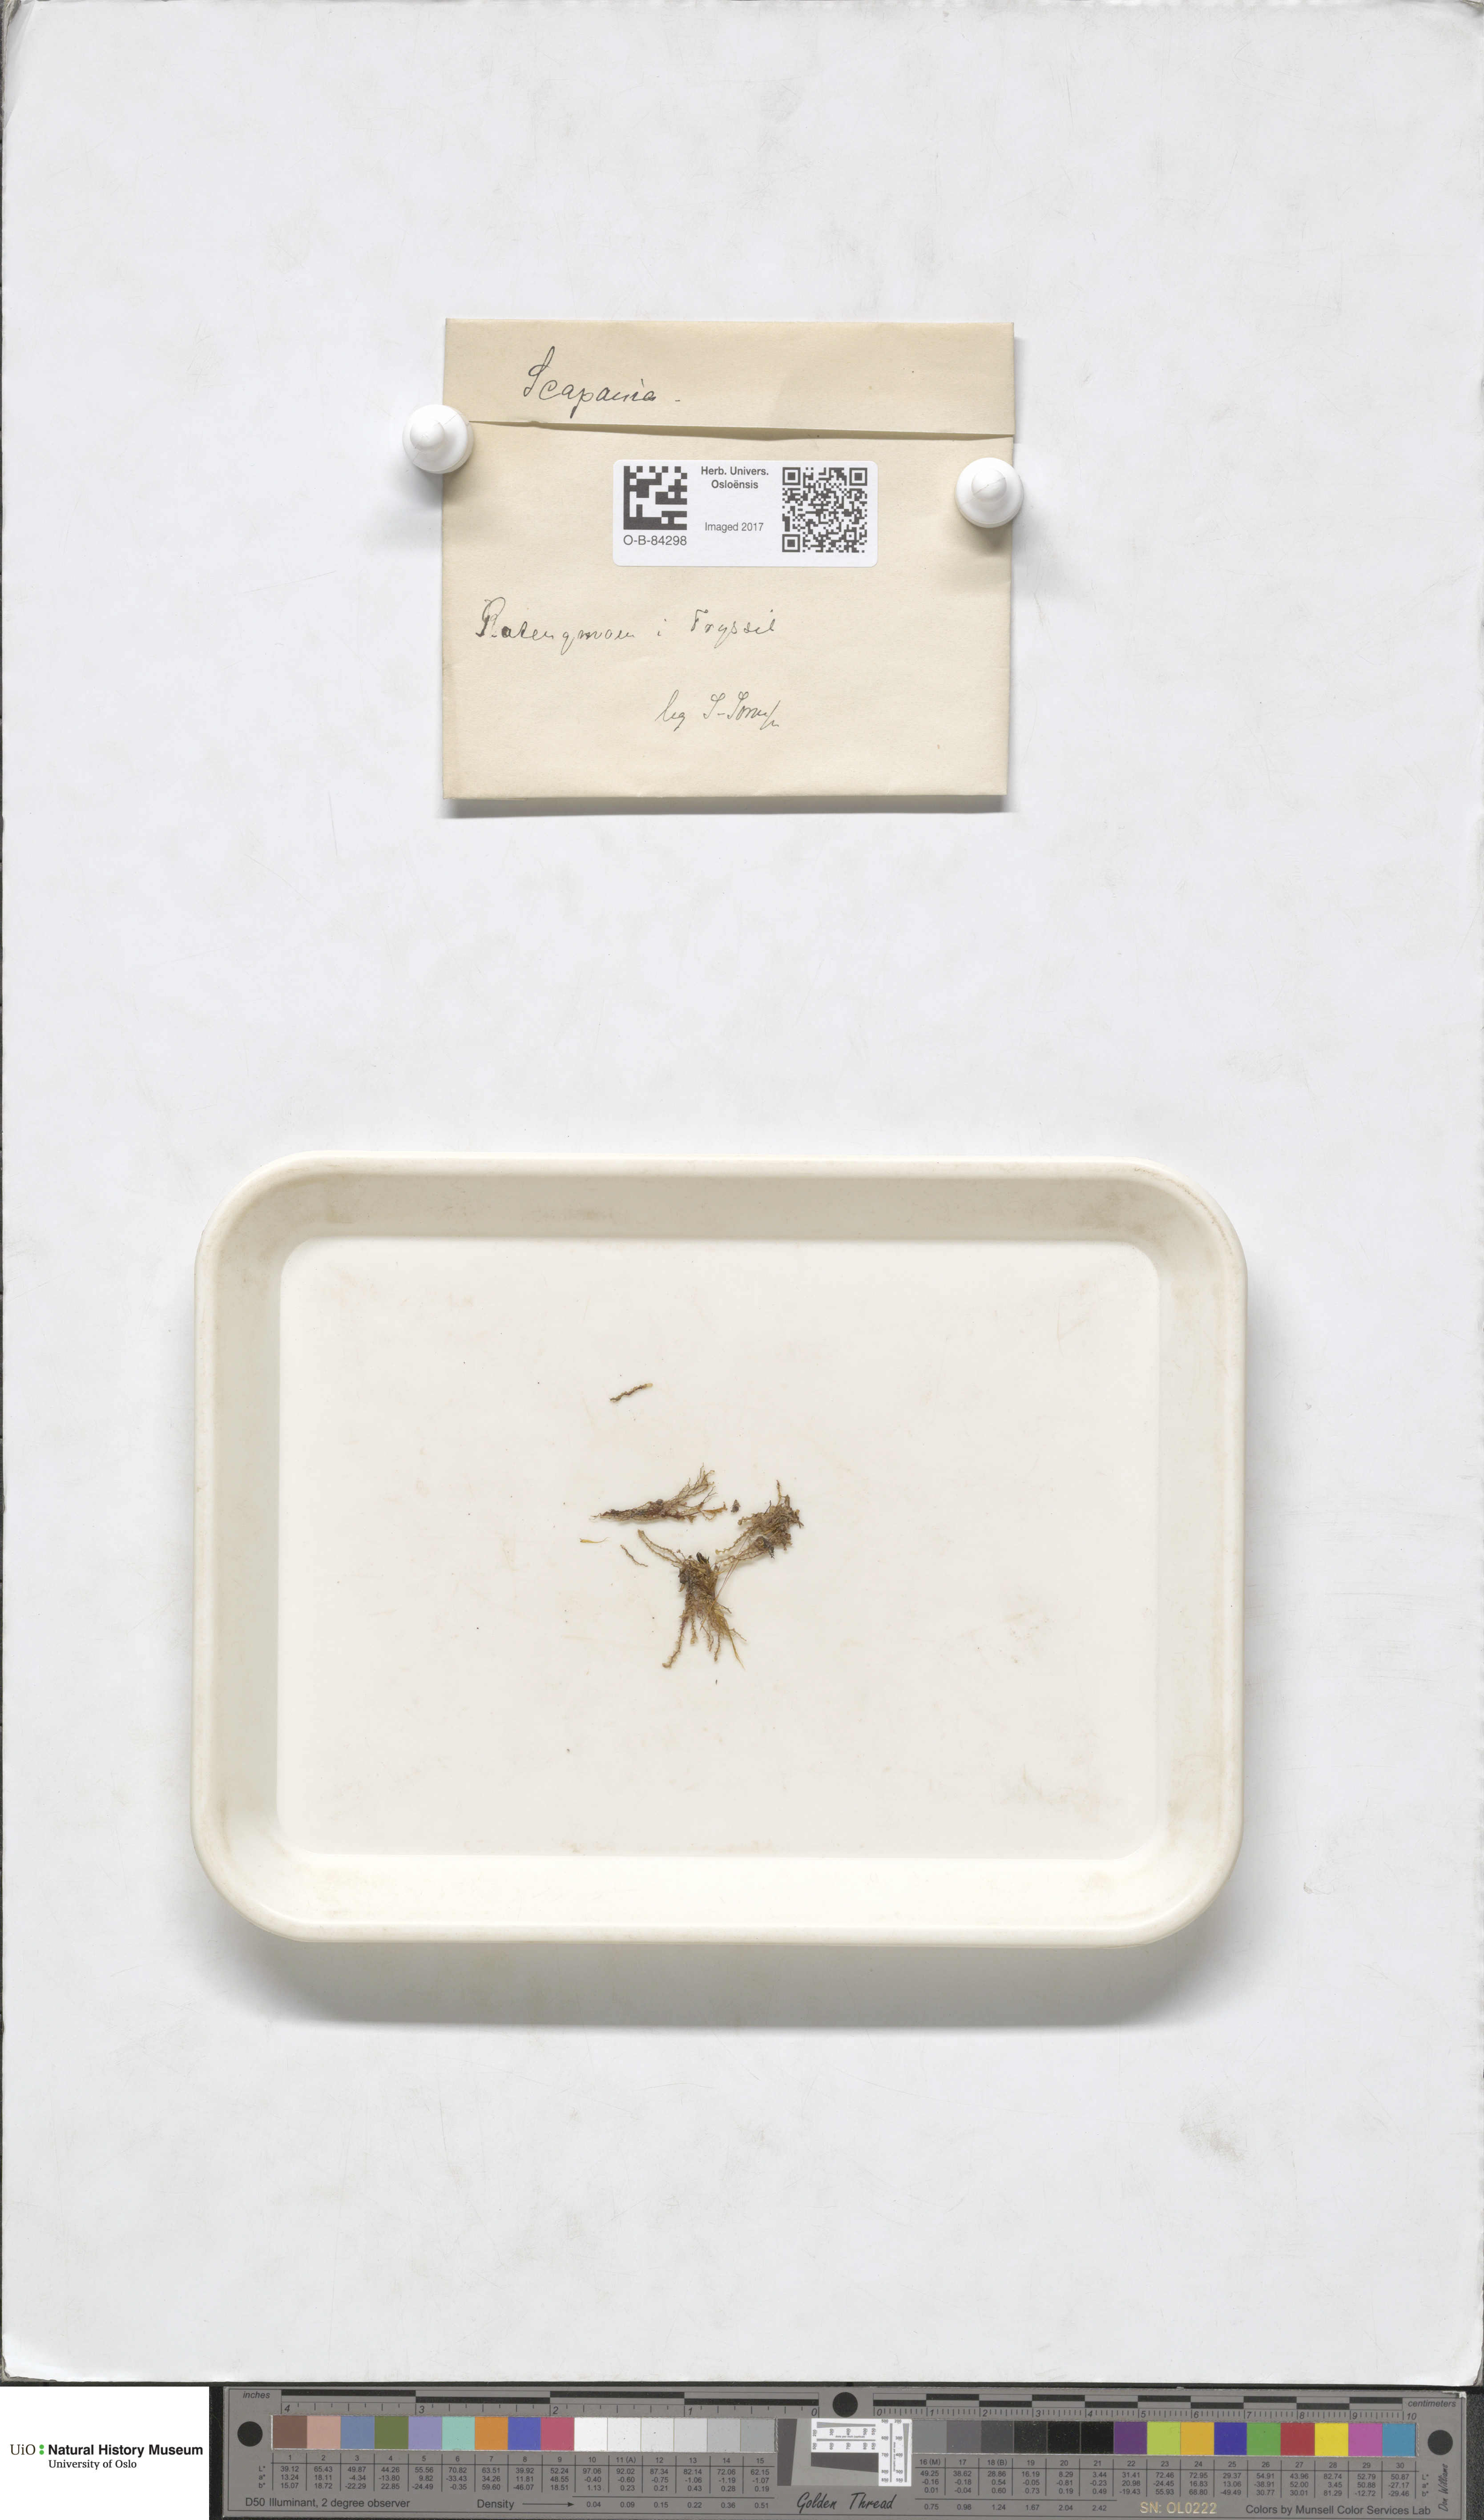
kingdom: Plantae
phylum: Marchantiophyta
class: Jungermanniopsida
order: Jungermanniales
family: Scapaniaceae
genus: Scapania
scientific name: Scapania
